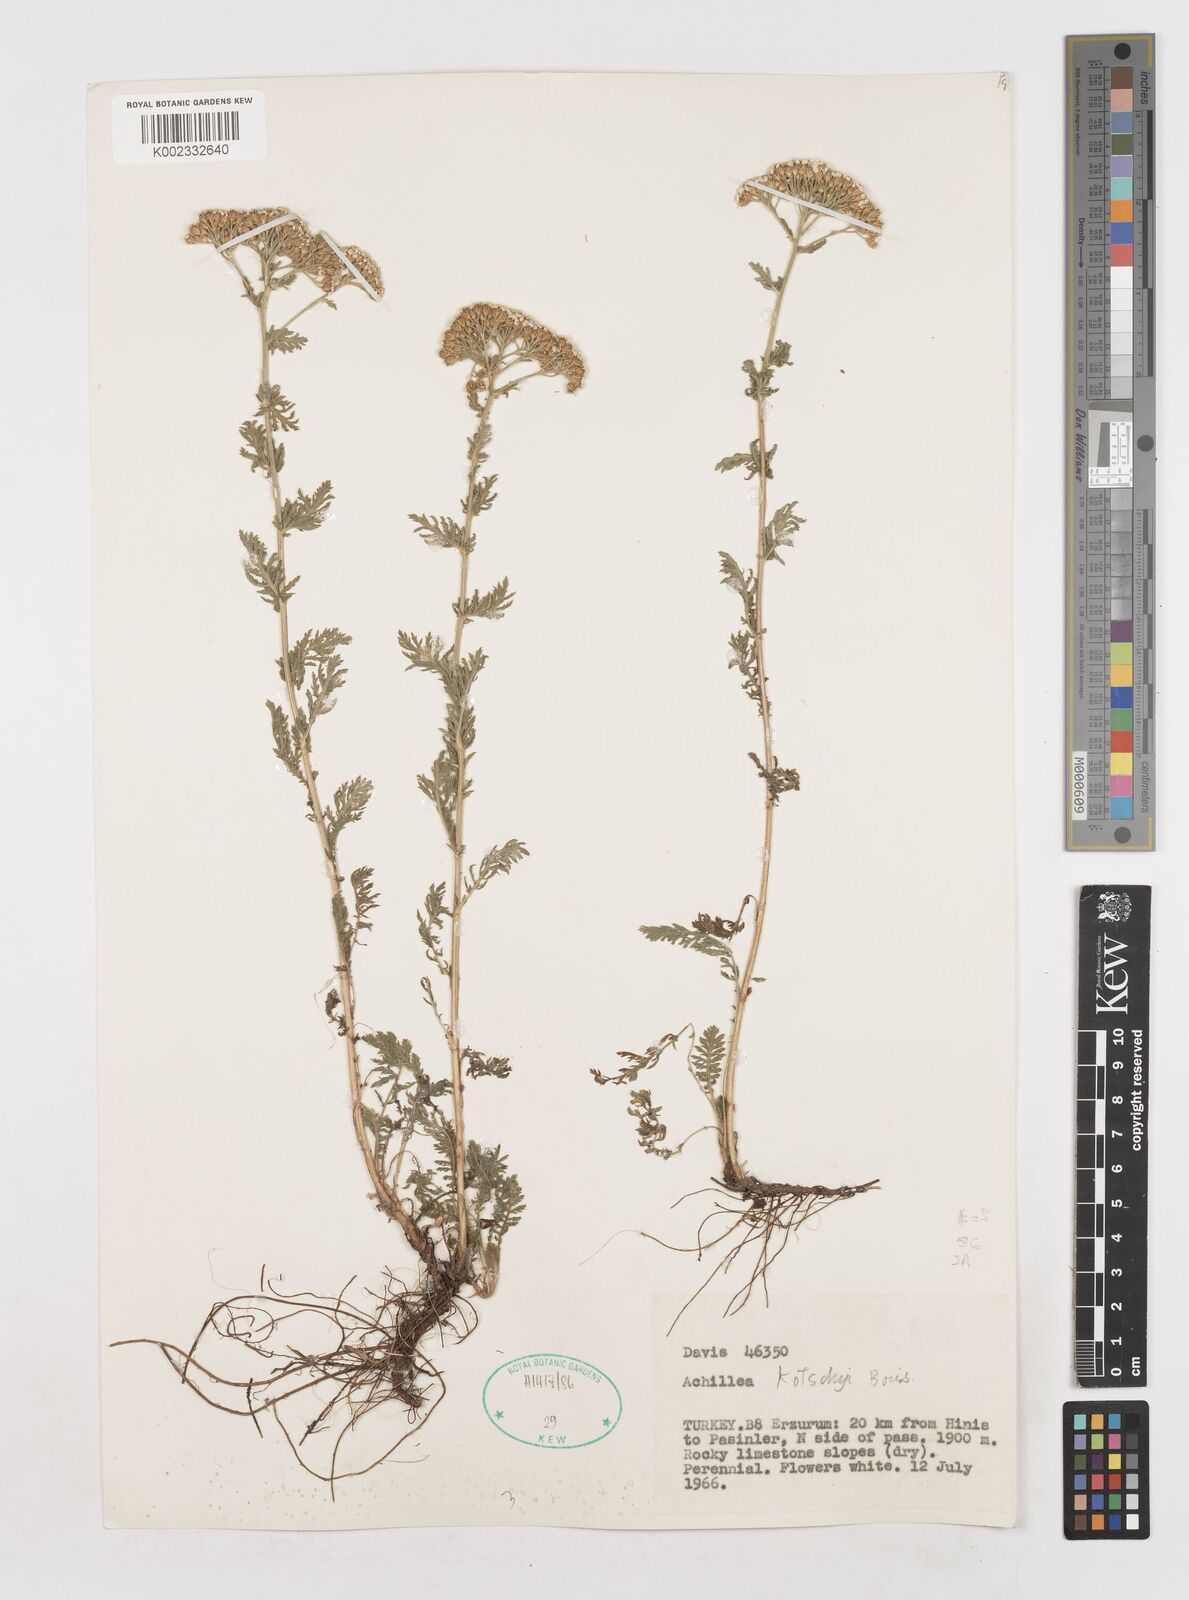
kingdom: Plantae
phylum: Tracheophyta
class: Magnoliopsida
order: Asterales
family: Asteraceae
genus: Achillea
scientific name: Achillea kotschyi
